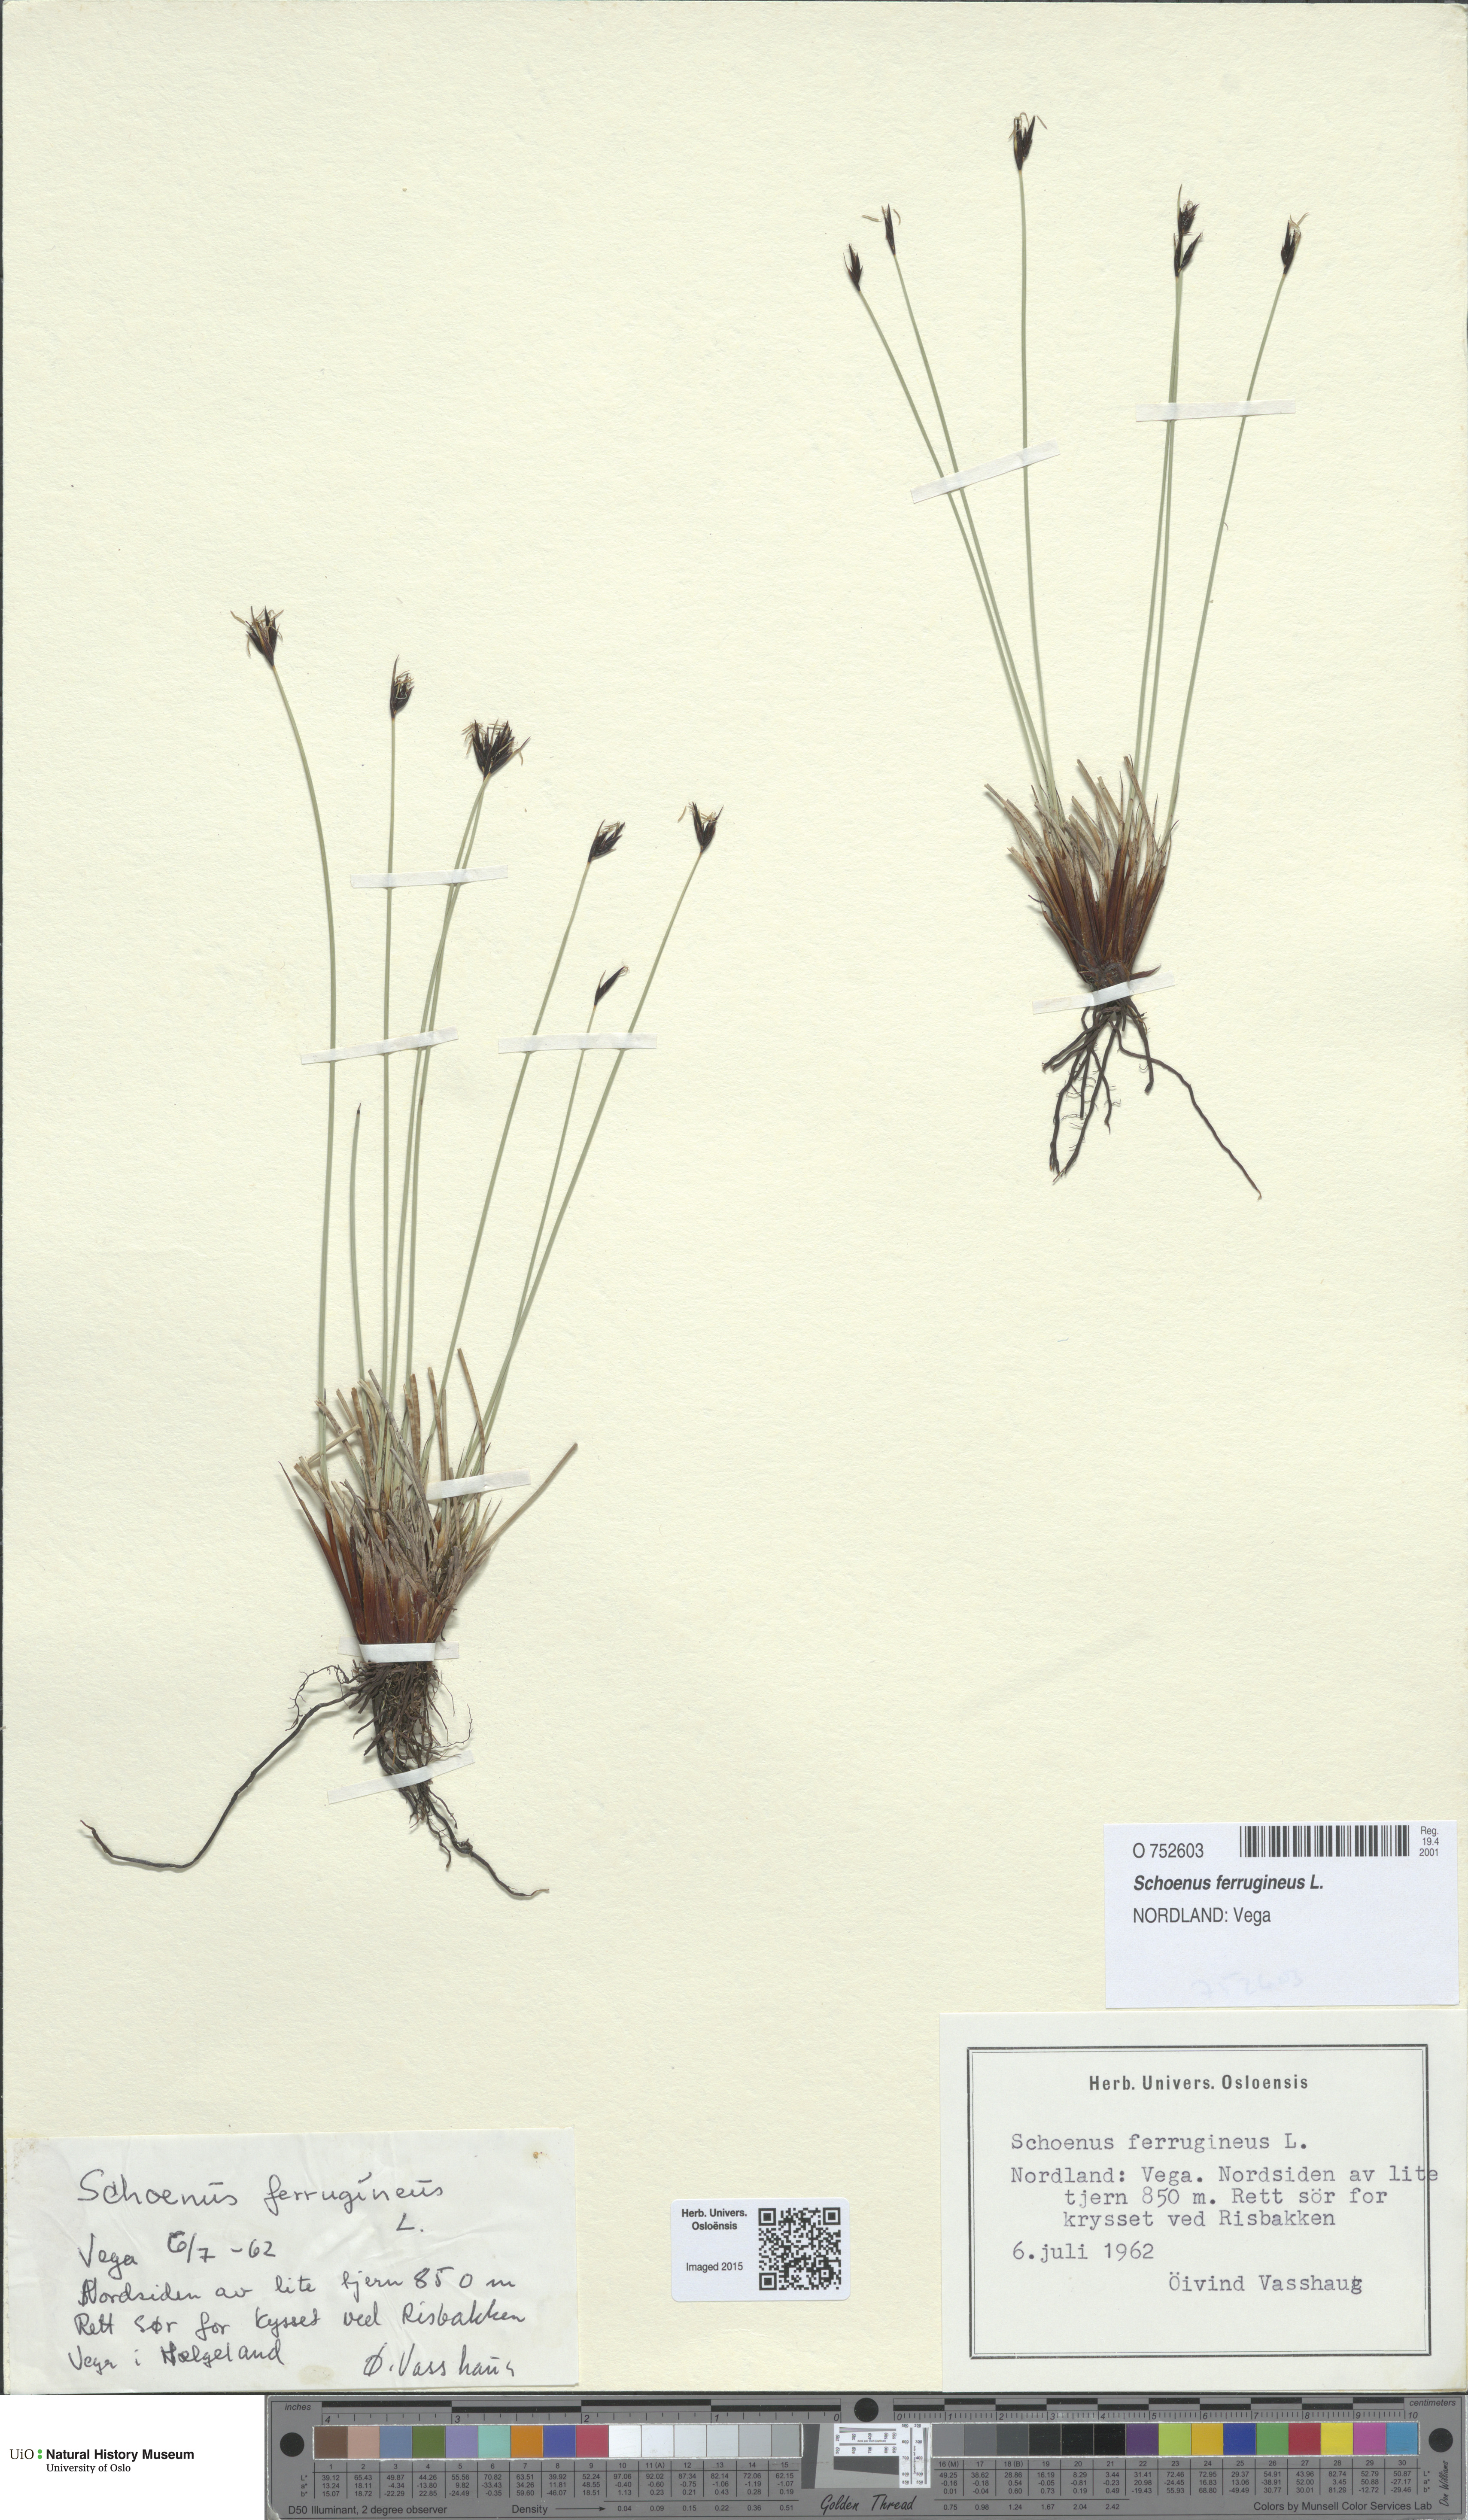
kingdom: Plantae
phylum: Tracheophyta
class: Liliopsida
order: Poales
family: Cyperaceae
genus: Schoenus
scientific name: Schoenus ferrugineus
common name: Brown bog-rush
